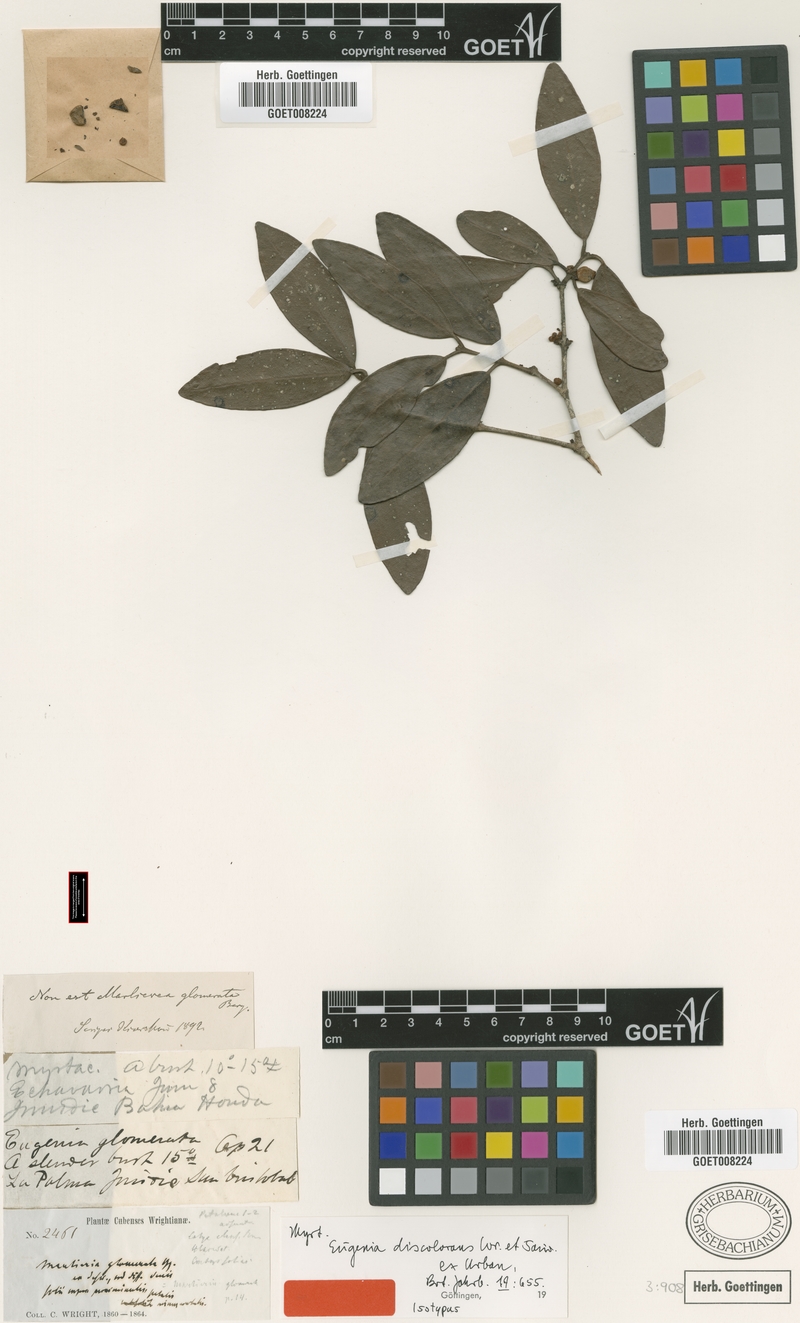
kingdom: Plantae
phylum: Tracheophyta
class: Magnoliopsida
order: Myrtales
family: Myrtaceae
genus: Eugenia
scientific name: Eugenia discolorans
